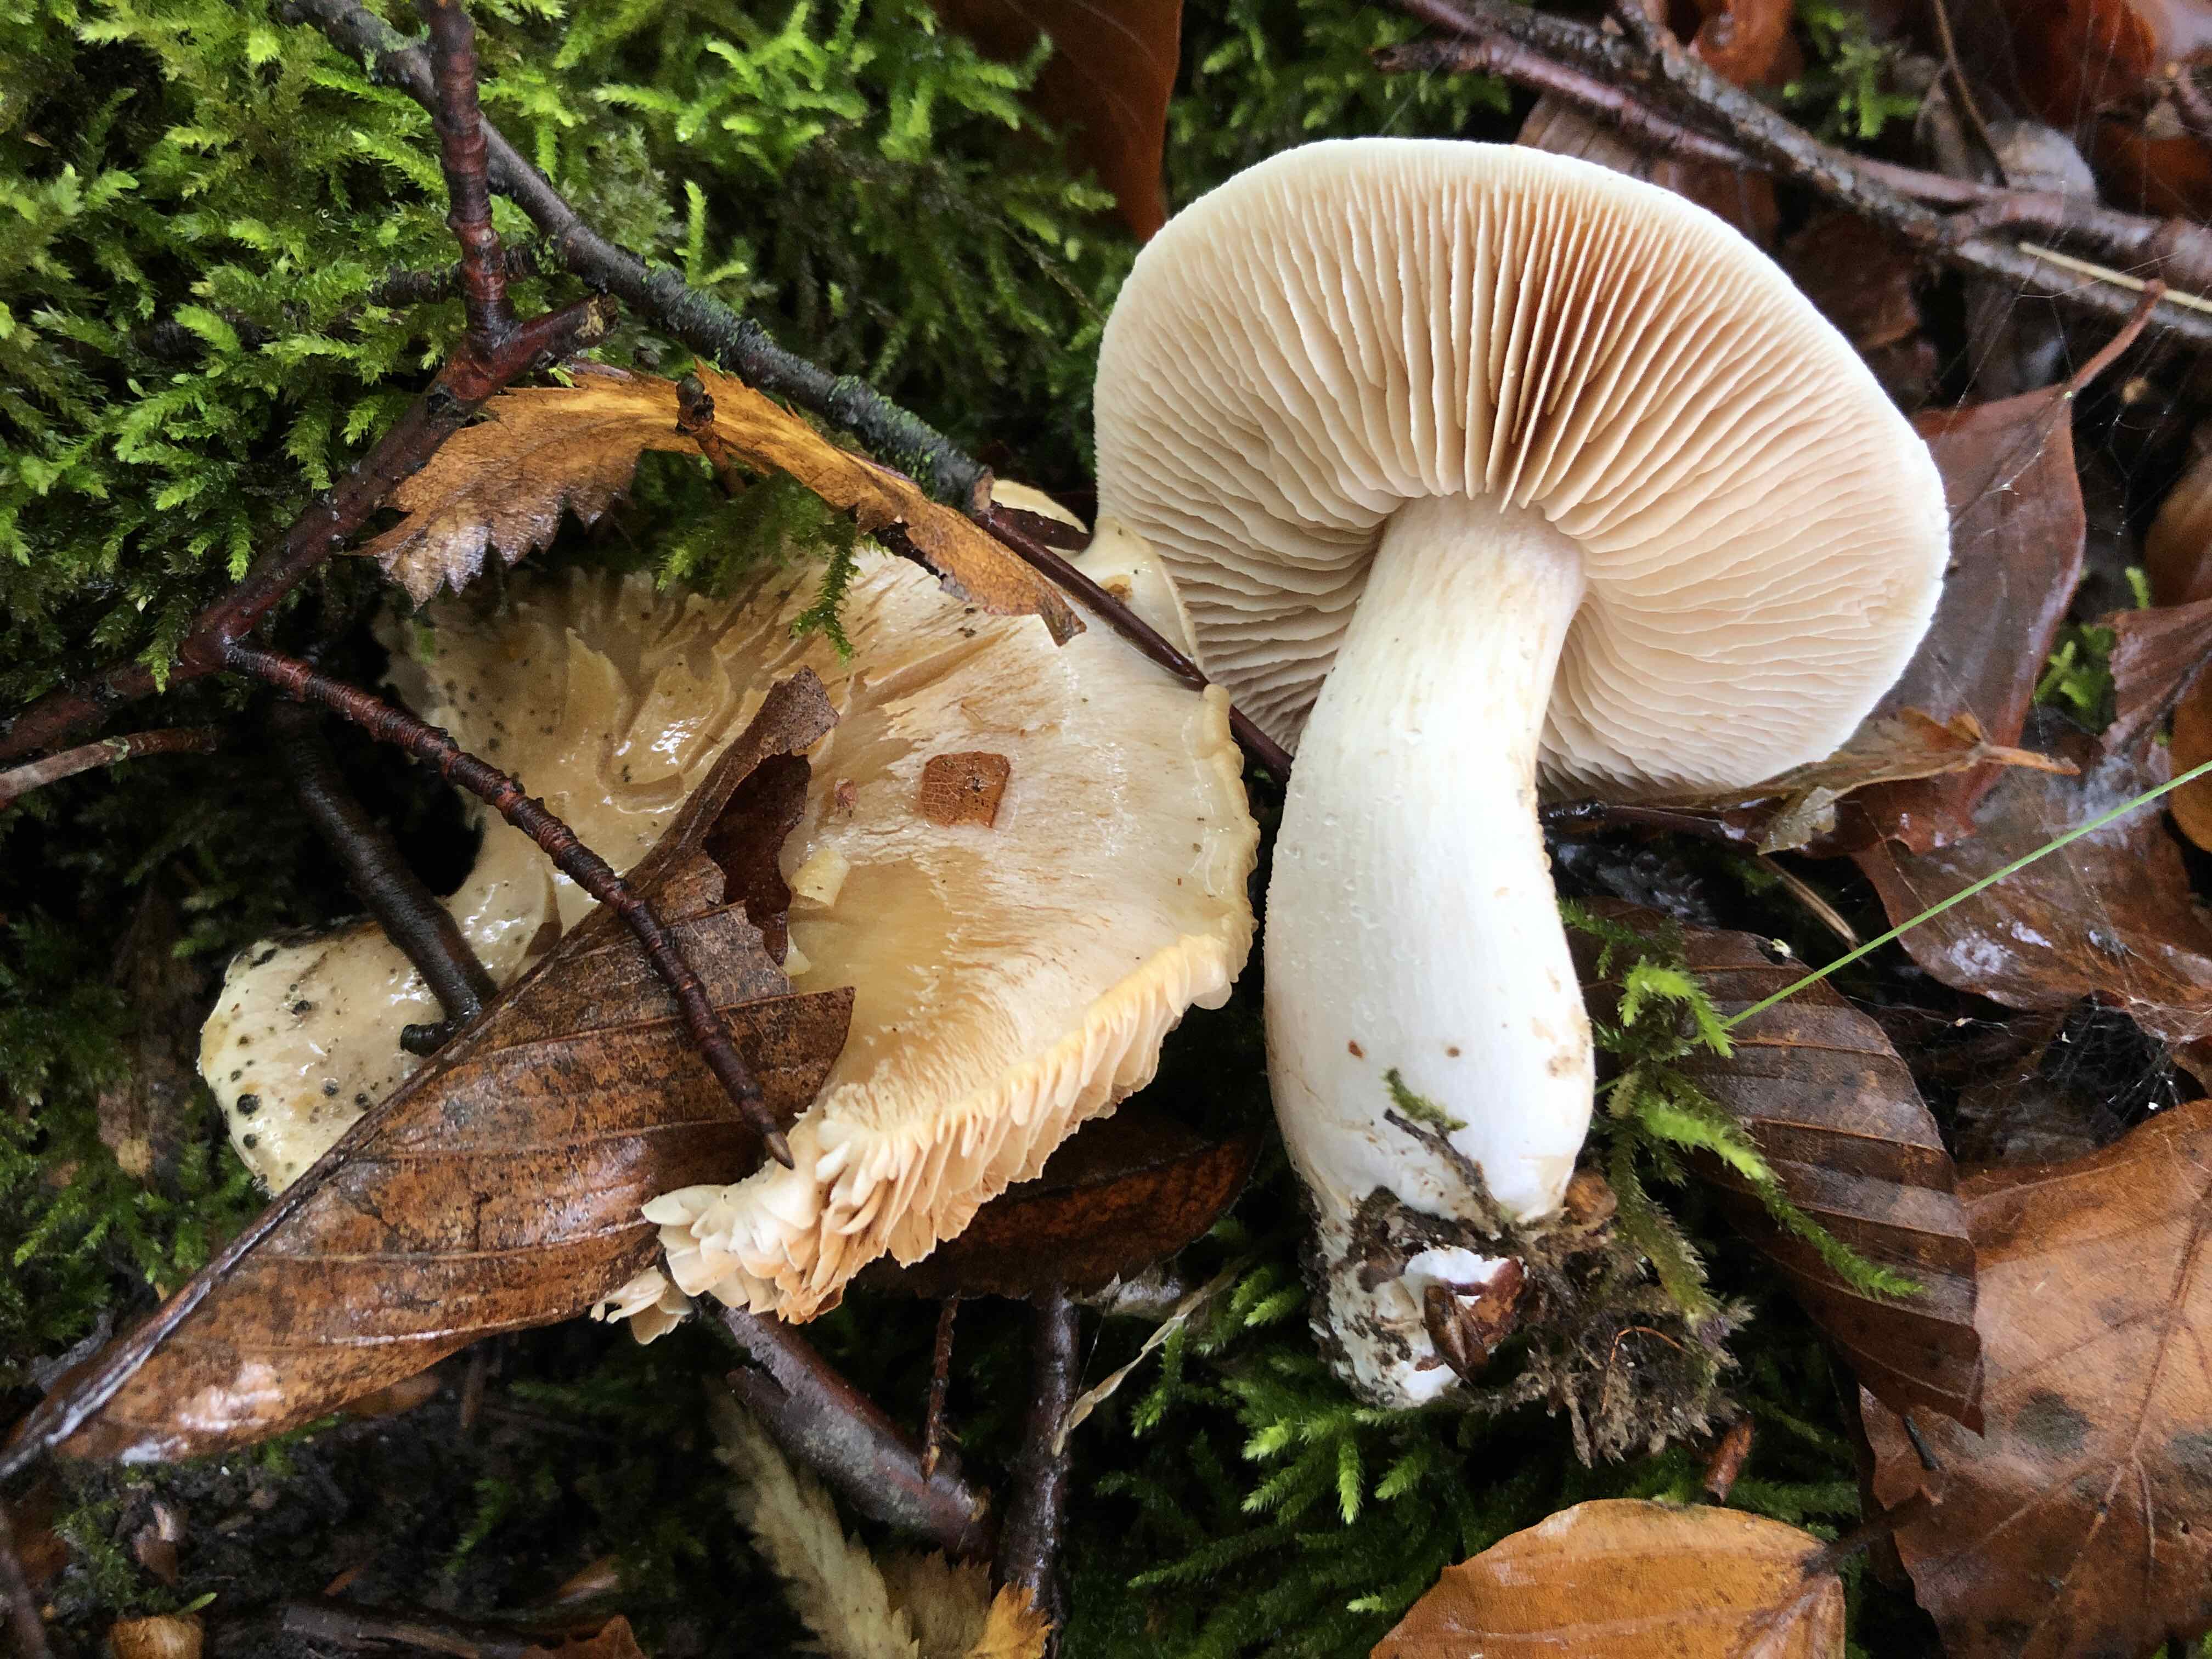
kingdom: Fungi
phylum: Basidiomycota
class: Agaricomycetes
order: Agaricales
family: Cortinariaceae
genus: Thaxterogaster
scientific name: Thaxterogaster leucoluteolus
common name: isabella slørhat
